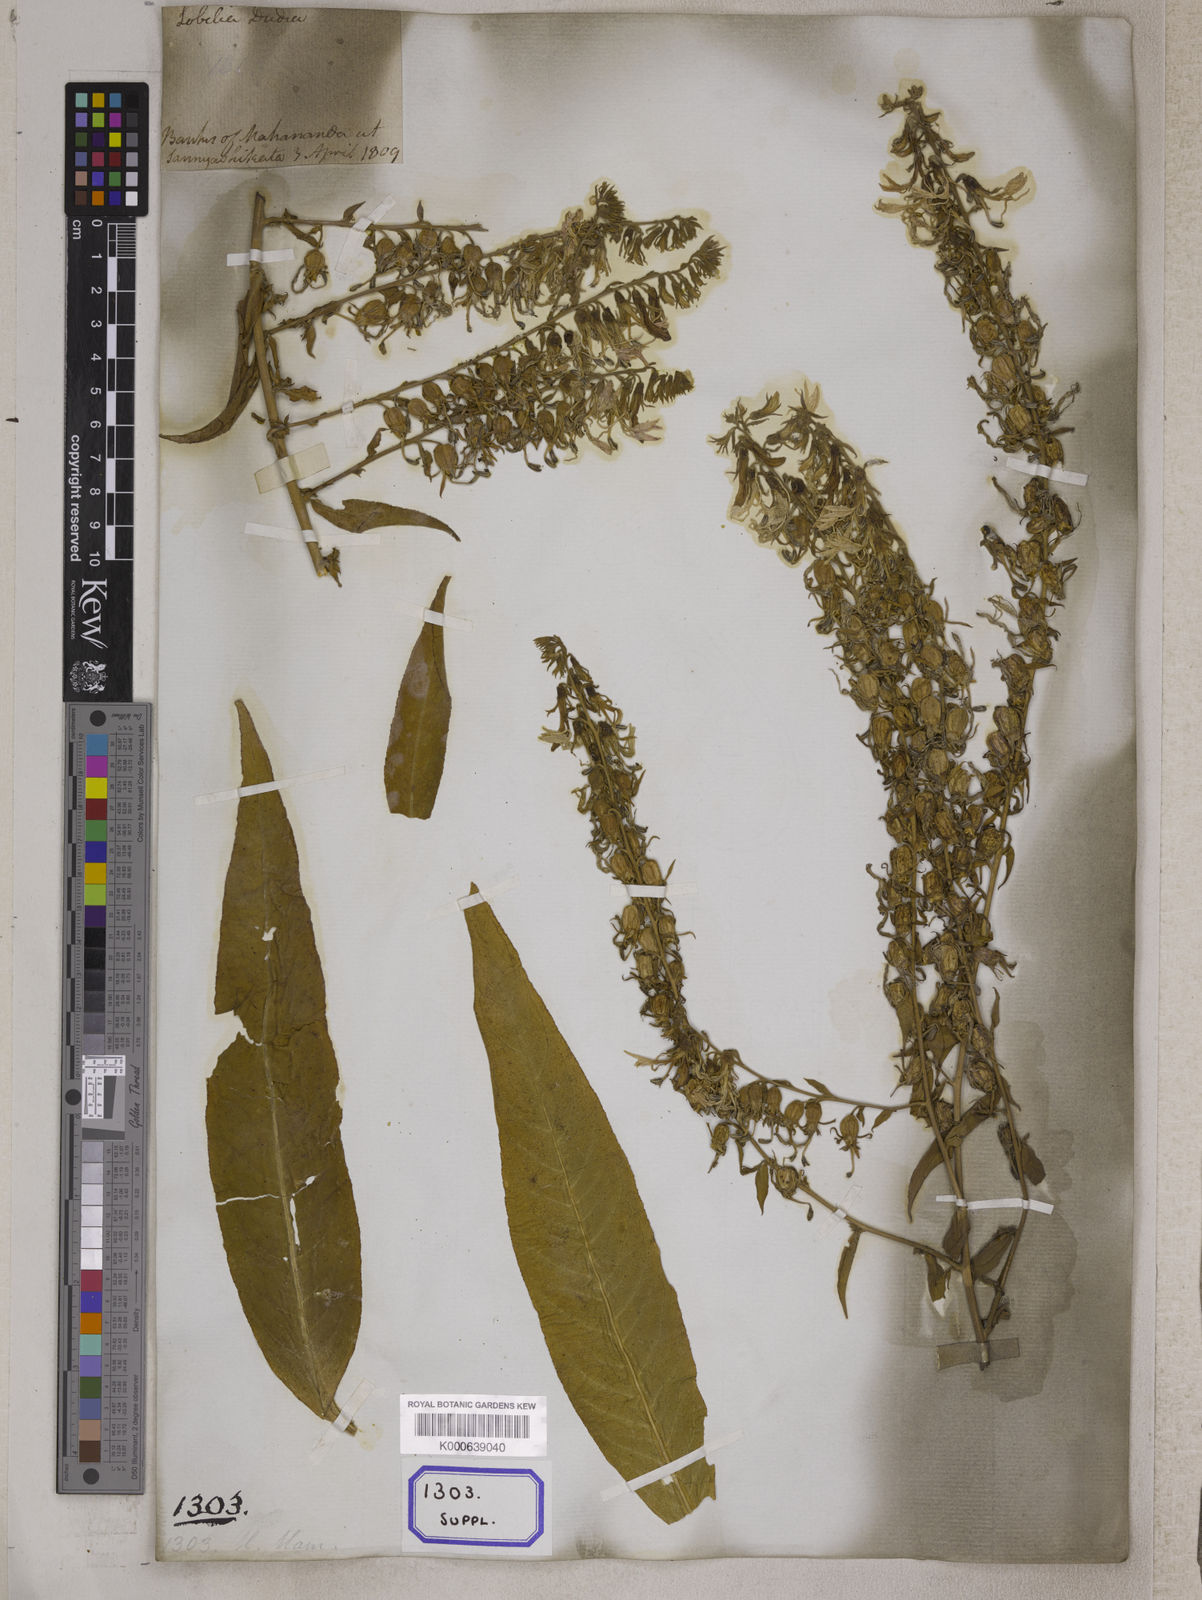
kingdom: Plantae
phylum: Tracheophyta
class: Magnoliopsida
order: Asterales
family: Campanulaceae
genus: Wahlenbergia
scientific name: Wahlenbergia multicaulis
